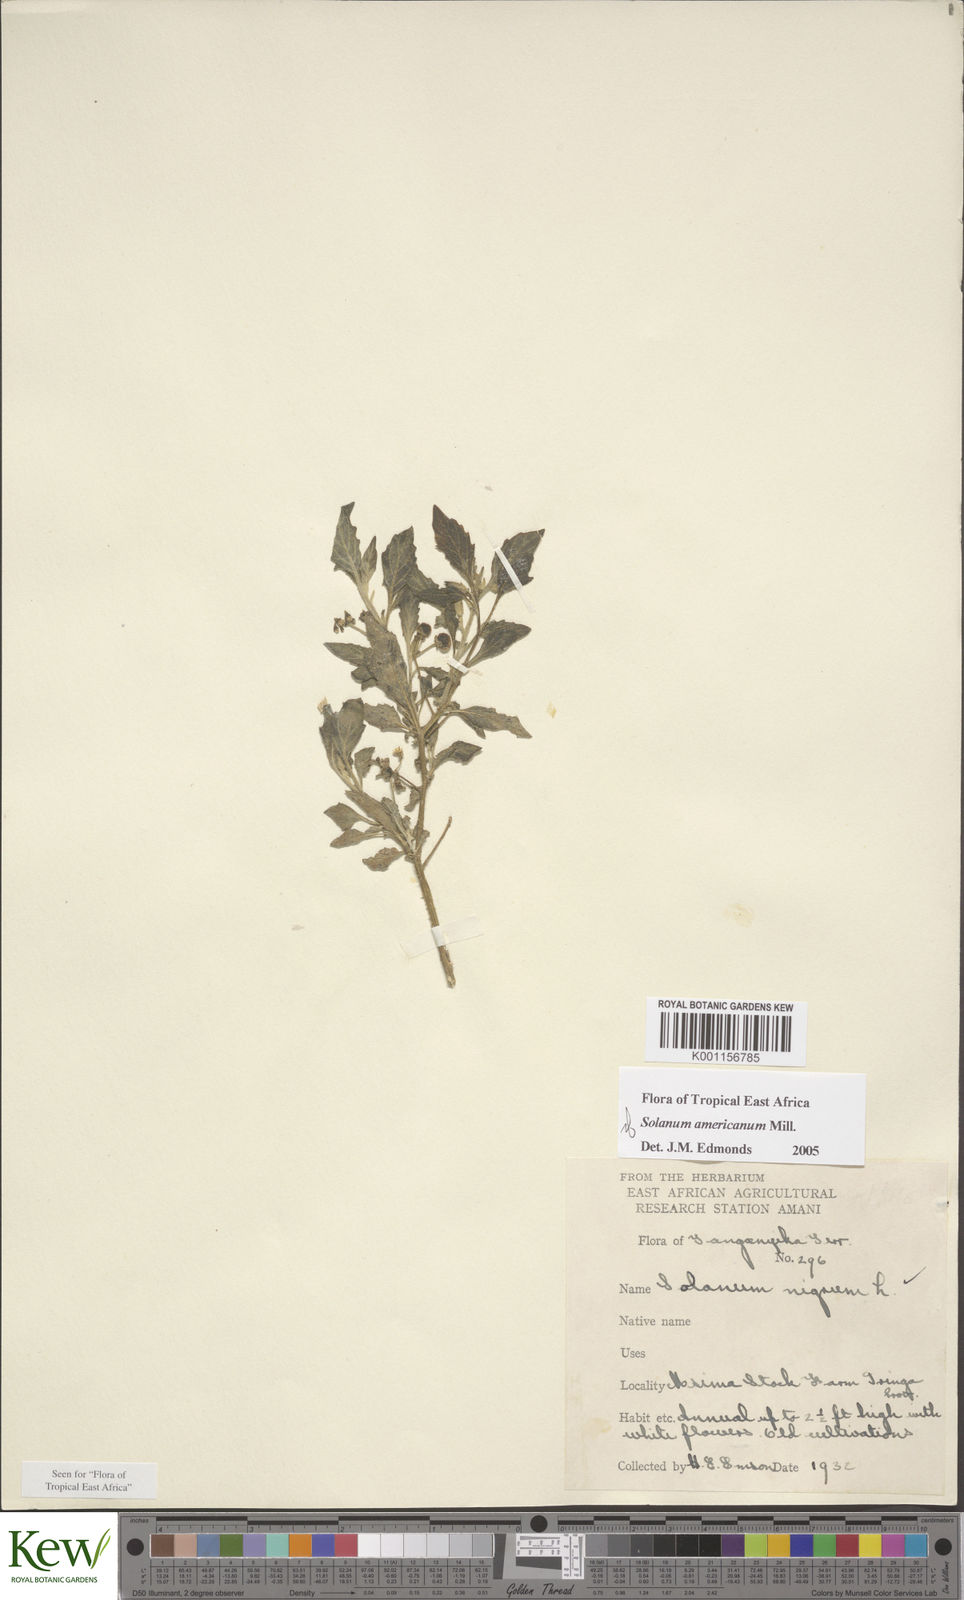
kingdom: Plantae
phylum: Tracheophyta
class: Magnoliopsida
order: Solanales
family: Solanaceae
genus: Solanum
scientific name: Solanum americanum
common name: American black nightshade
